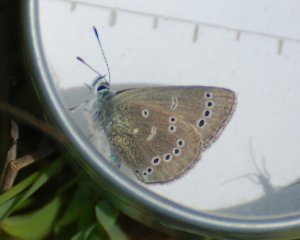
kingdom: Animalia
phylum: Arthropoda
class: Insecta
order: Lepidoptera
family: Lycaenidae
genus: Glaucopsyche
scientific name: Glaucopsyche lygdamus
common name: Silvery Blue
